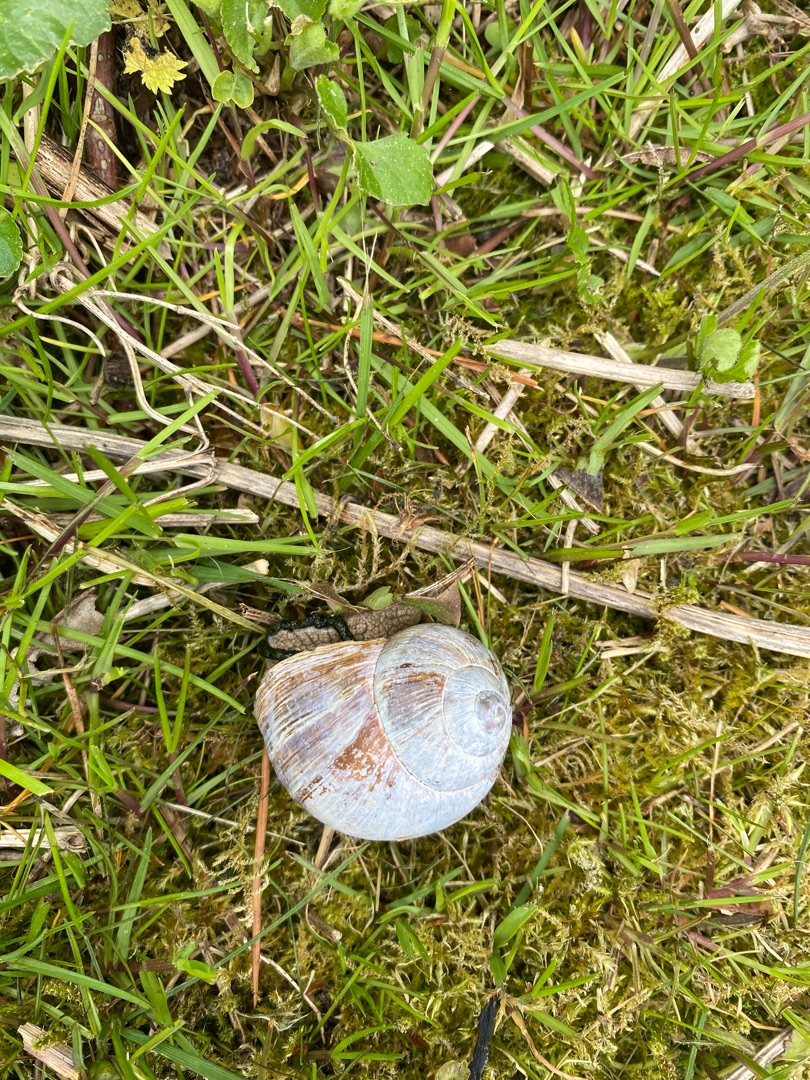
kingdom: Animalia
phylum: Mollusca
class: Gastropoda
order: Stylommatophora
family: Helicidae
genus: Helix
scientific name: Helix pomatia
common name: Vinbjergsnegl
